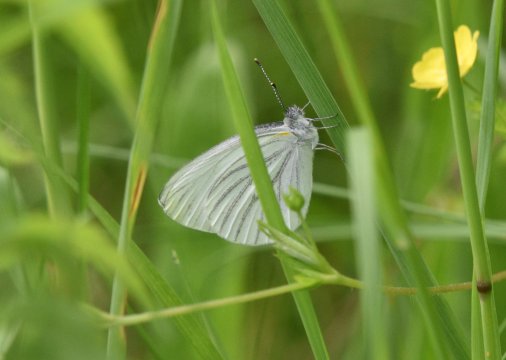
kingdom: Animalia
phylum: Arthropoda
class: Insecta
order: Lepidoptera
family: Pieridae
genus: Pieris
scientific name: Pieris oleracea
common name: Mustard White
